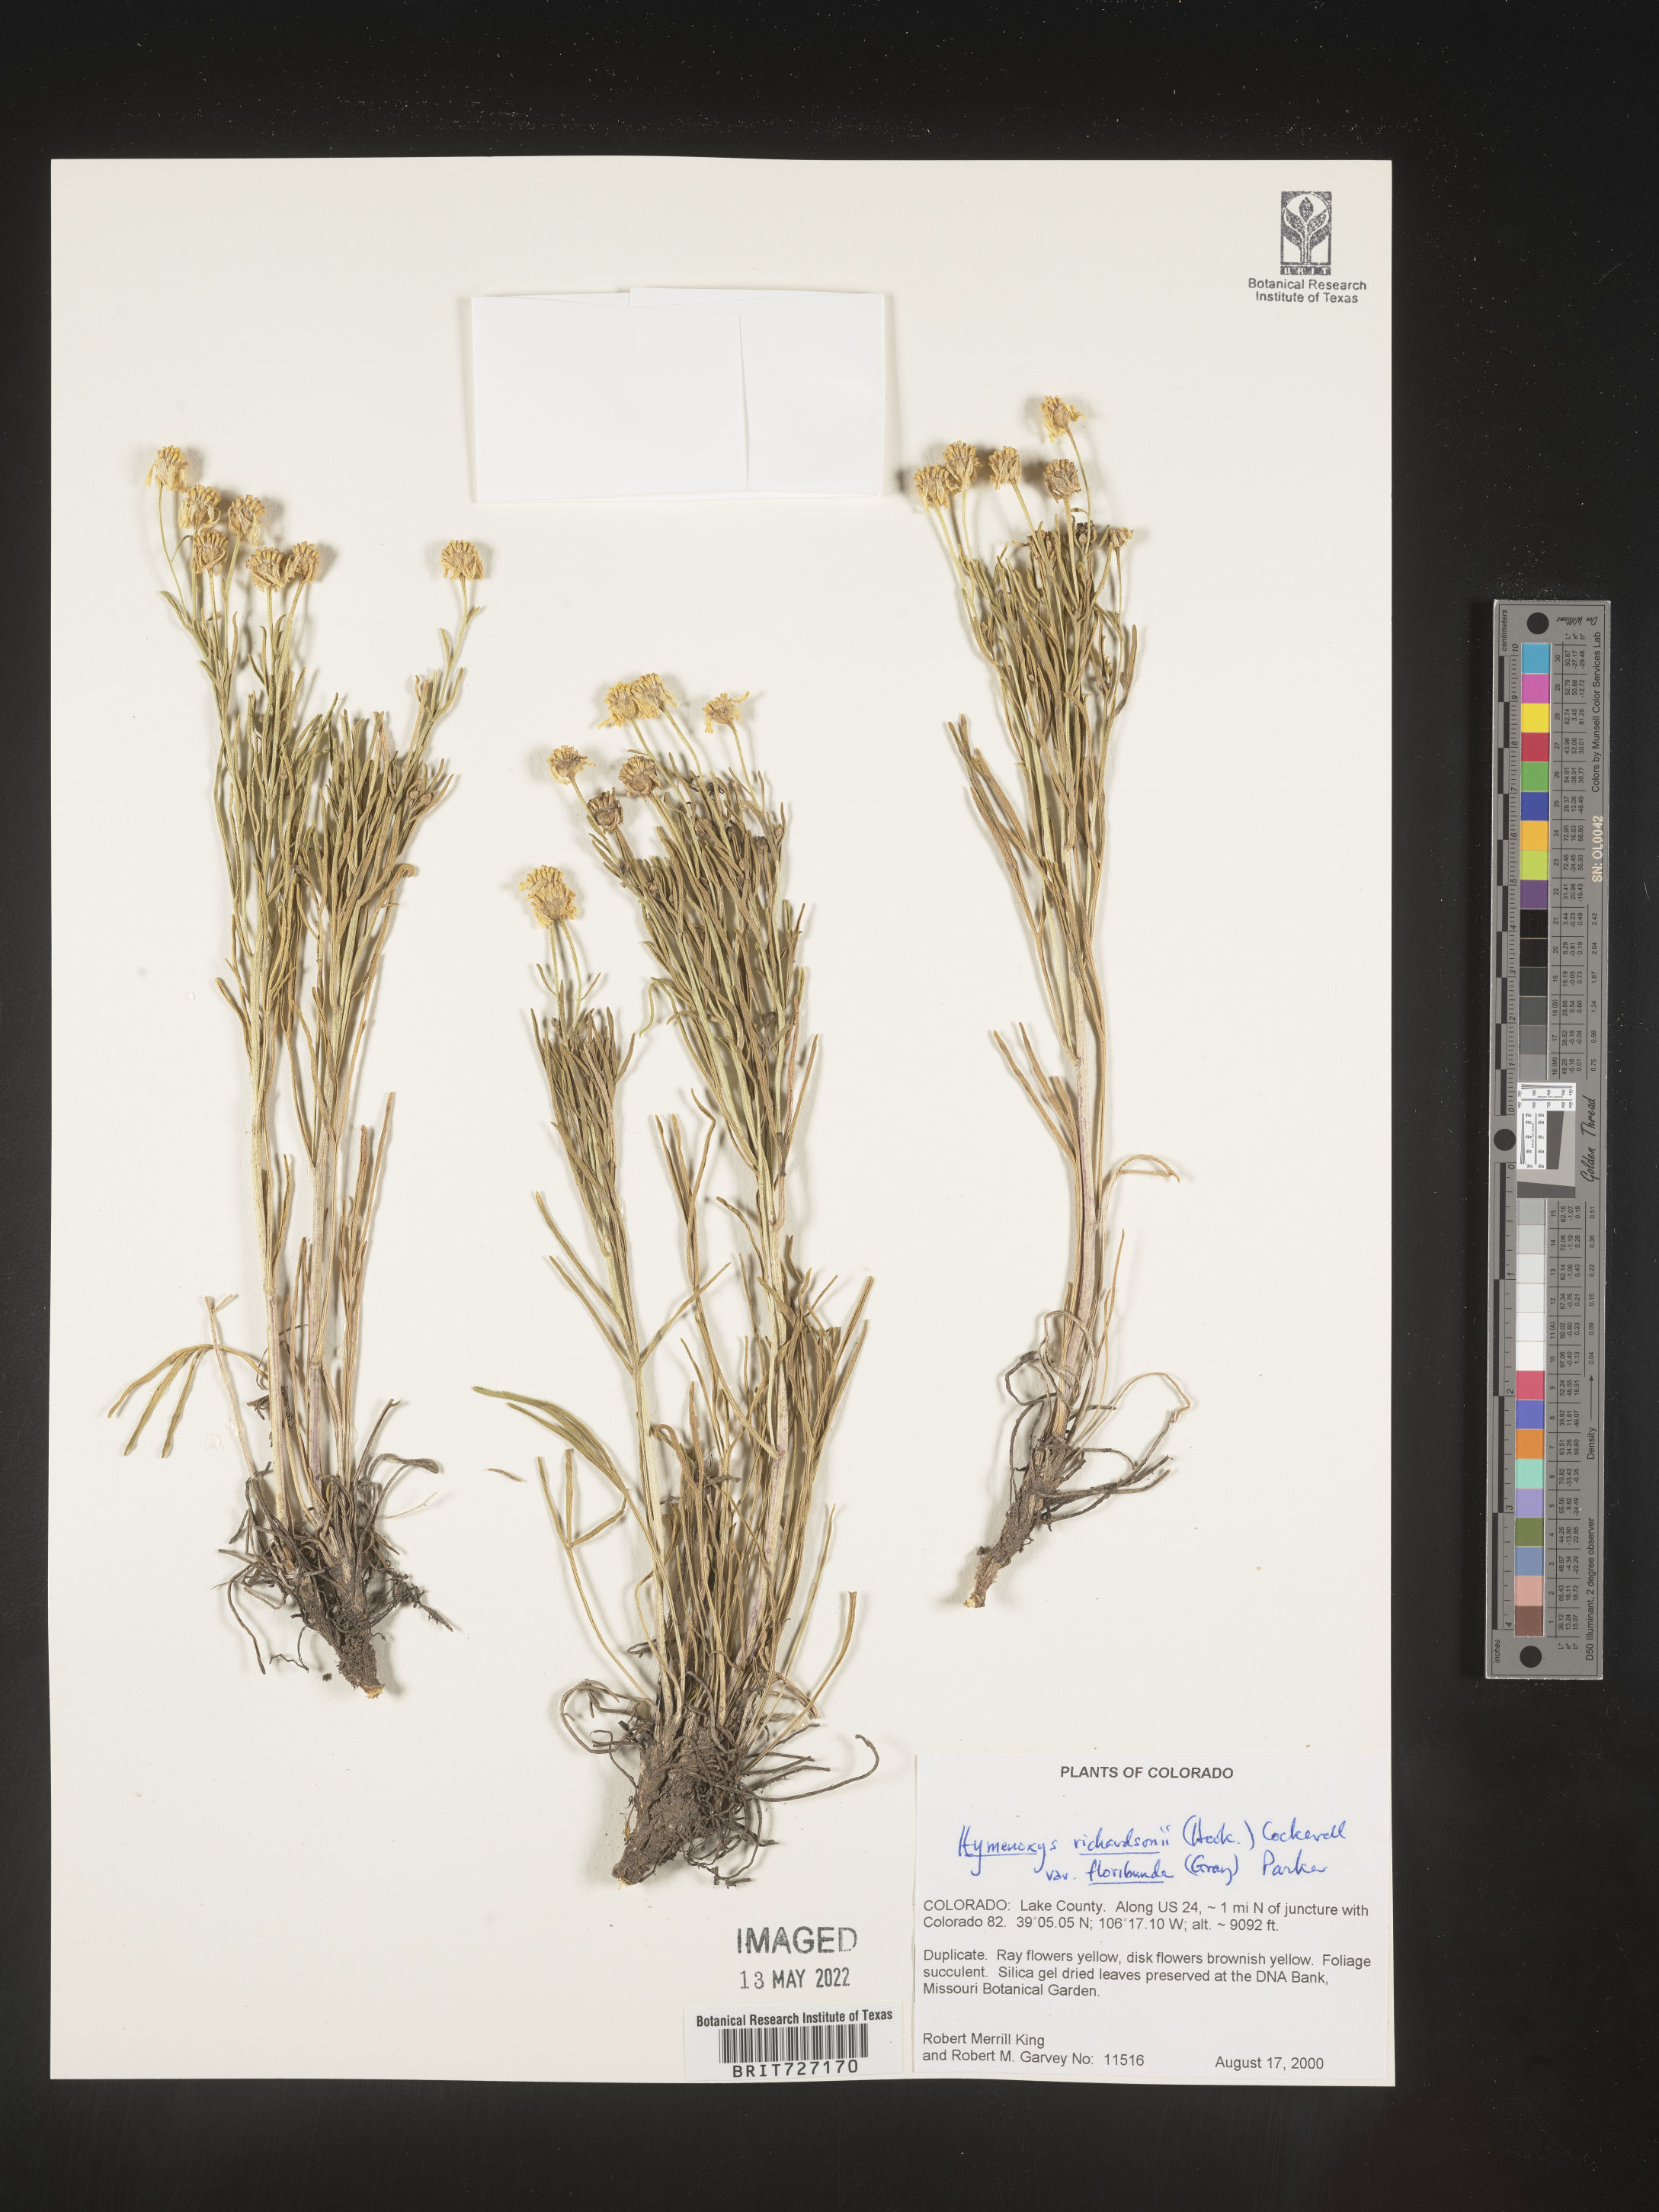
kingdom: Plantae
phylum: Tracheophyta
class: Magnoliopsida
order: Asterales
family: Asteraceae
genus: Hymenoxys
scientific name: Hymenoxys richardsonii
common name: Pingue rubberweed
